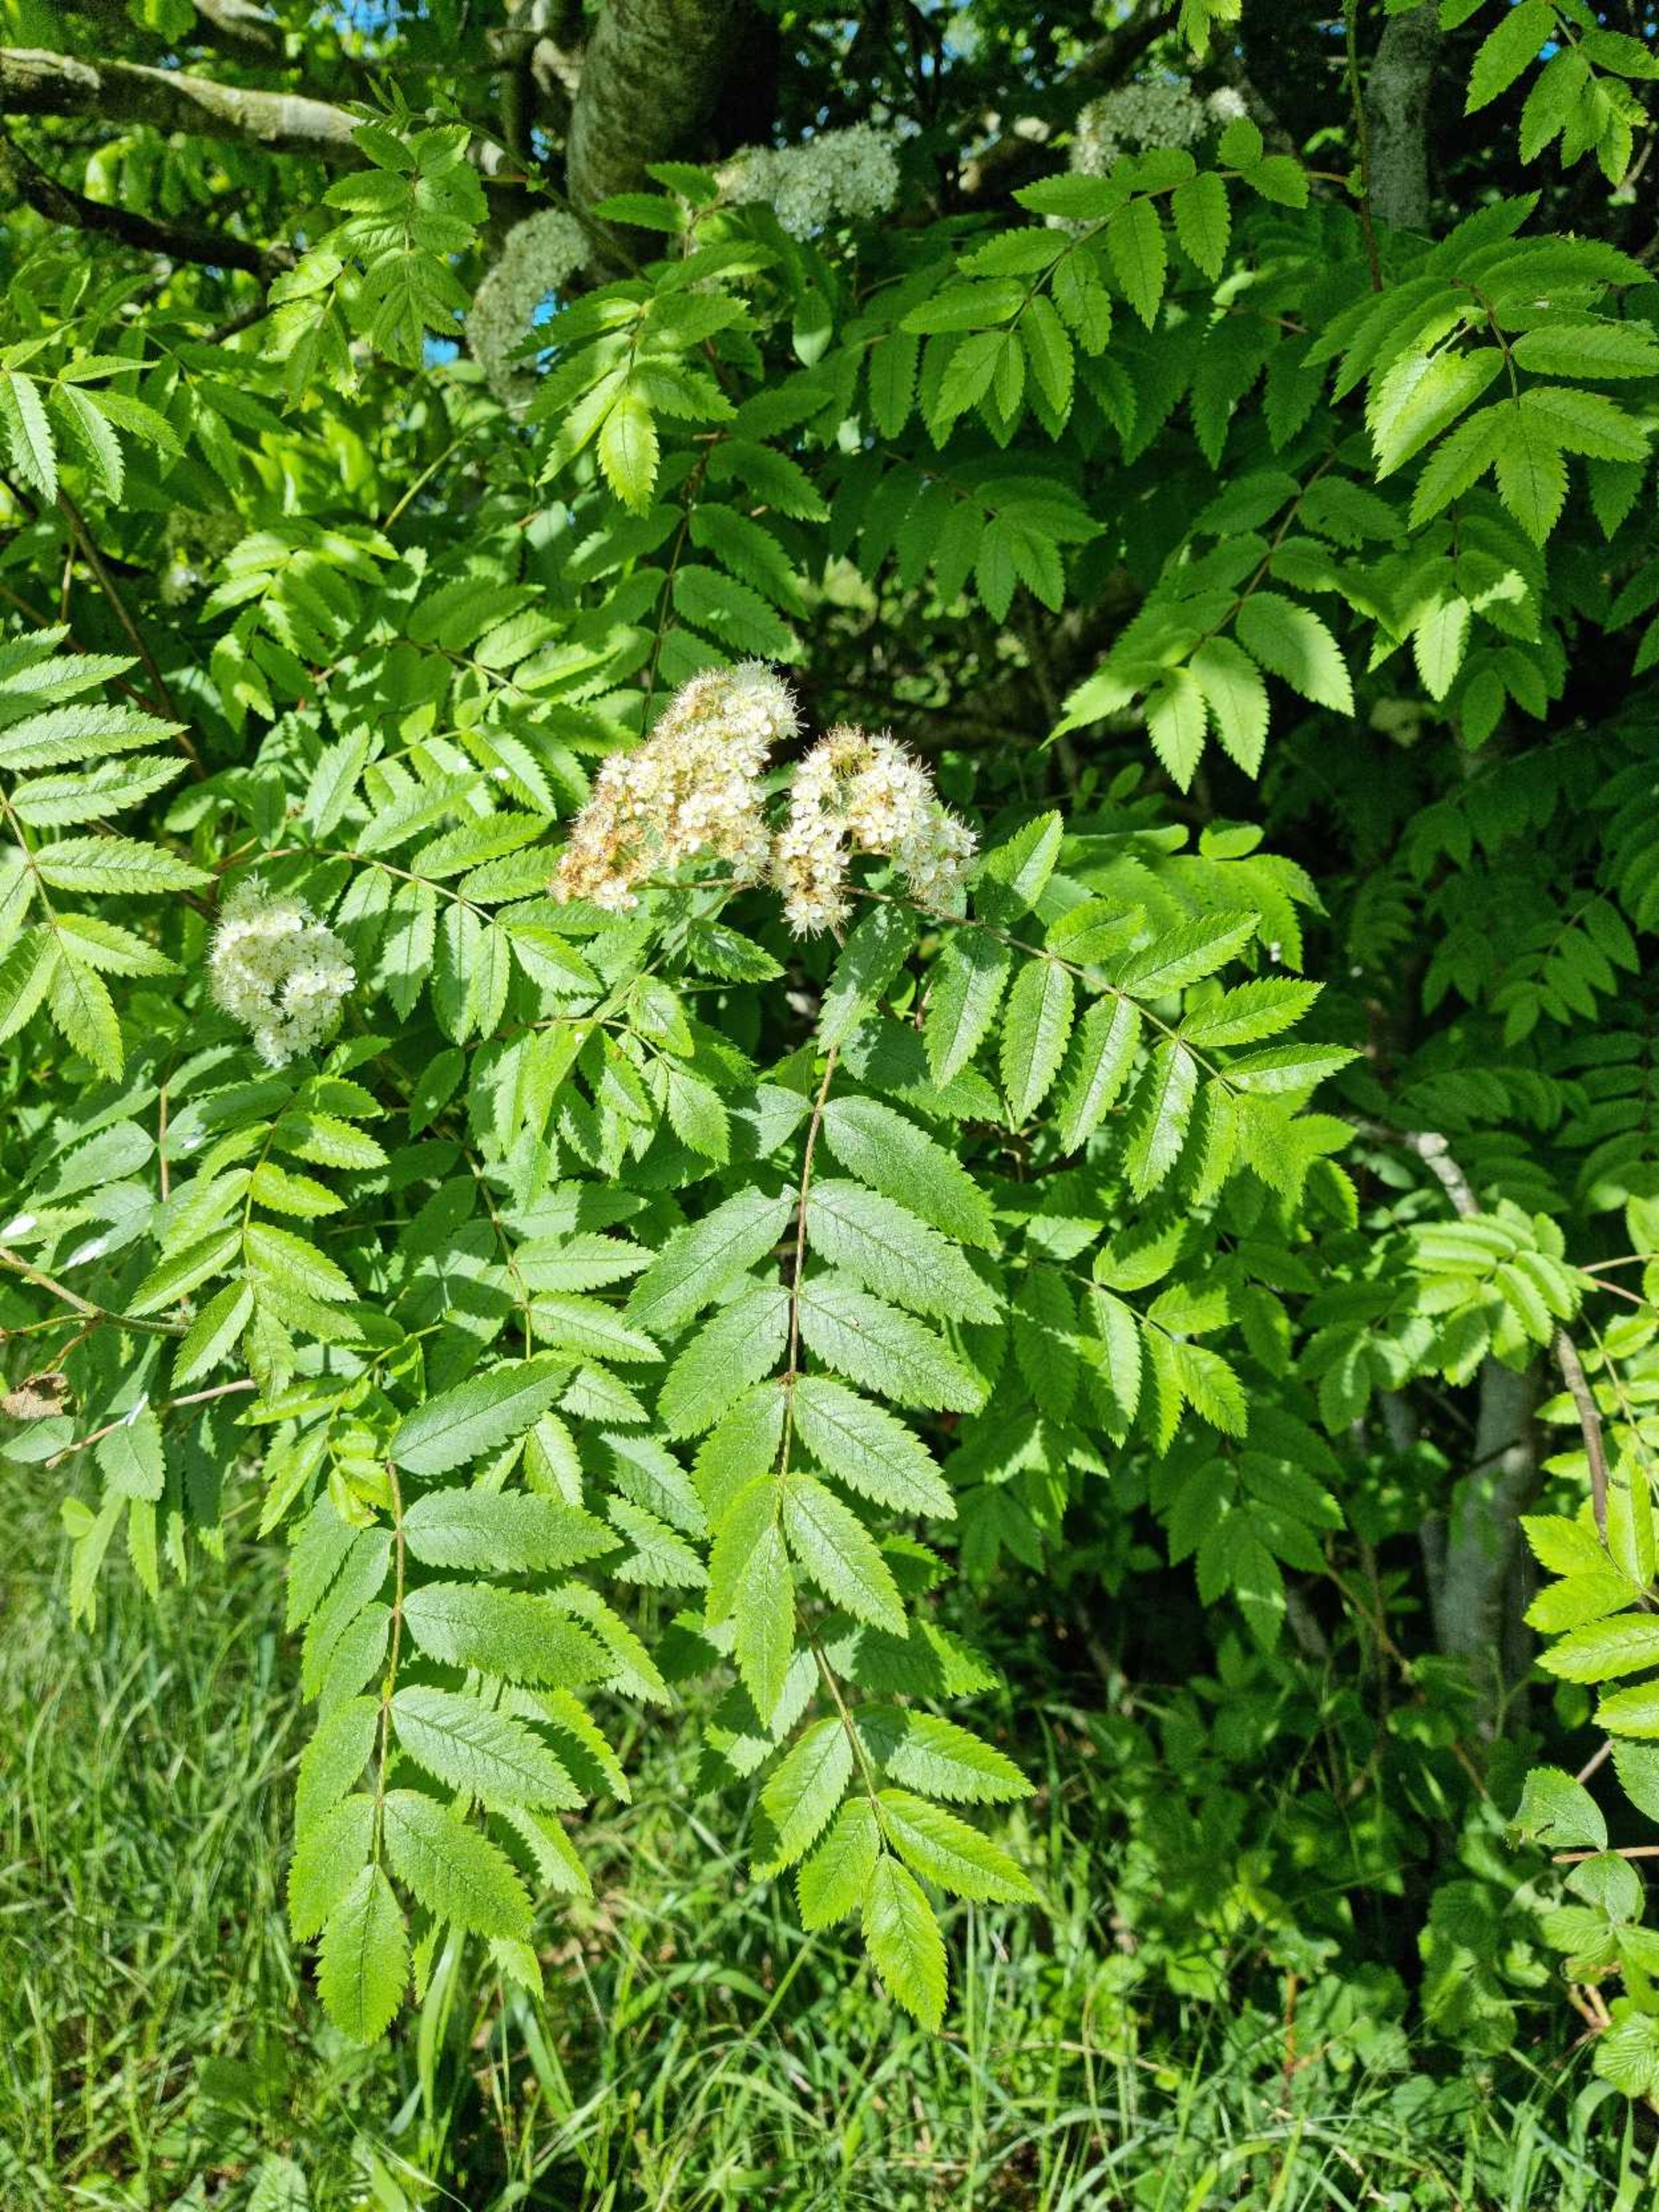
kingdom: Plantae
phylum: Tracheophyta
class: Magnoliopsida
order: Rosales
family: Rosaceae
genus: Sorbus
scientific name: Sorbus aucuparia
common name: Almindelig røn
